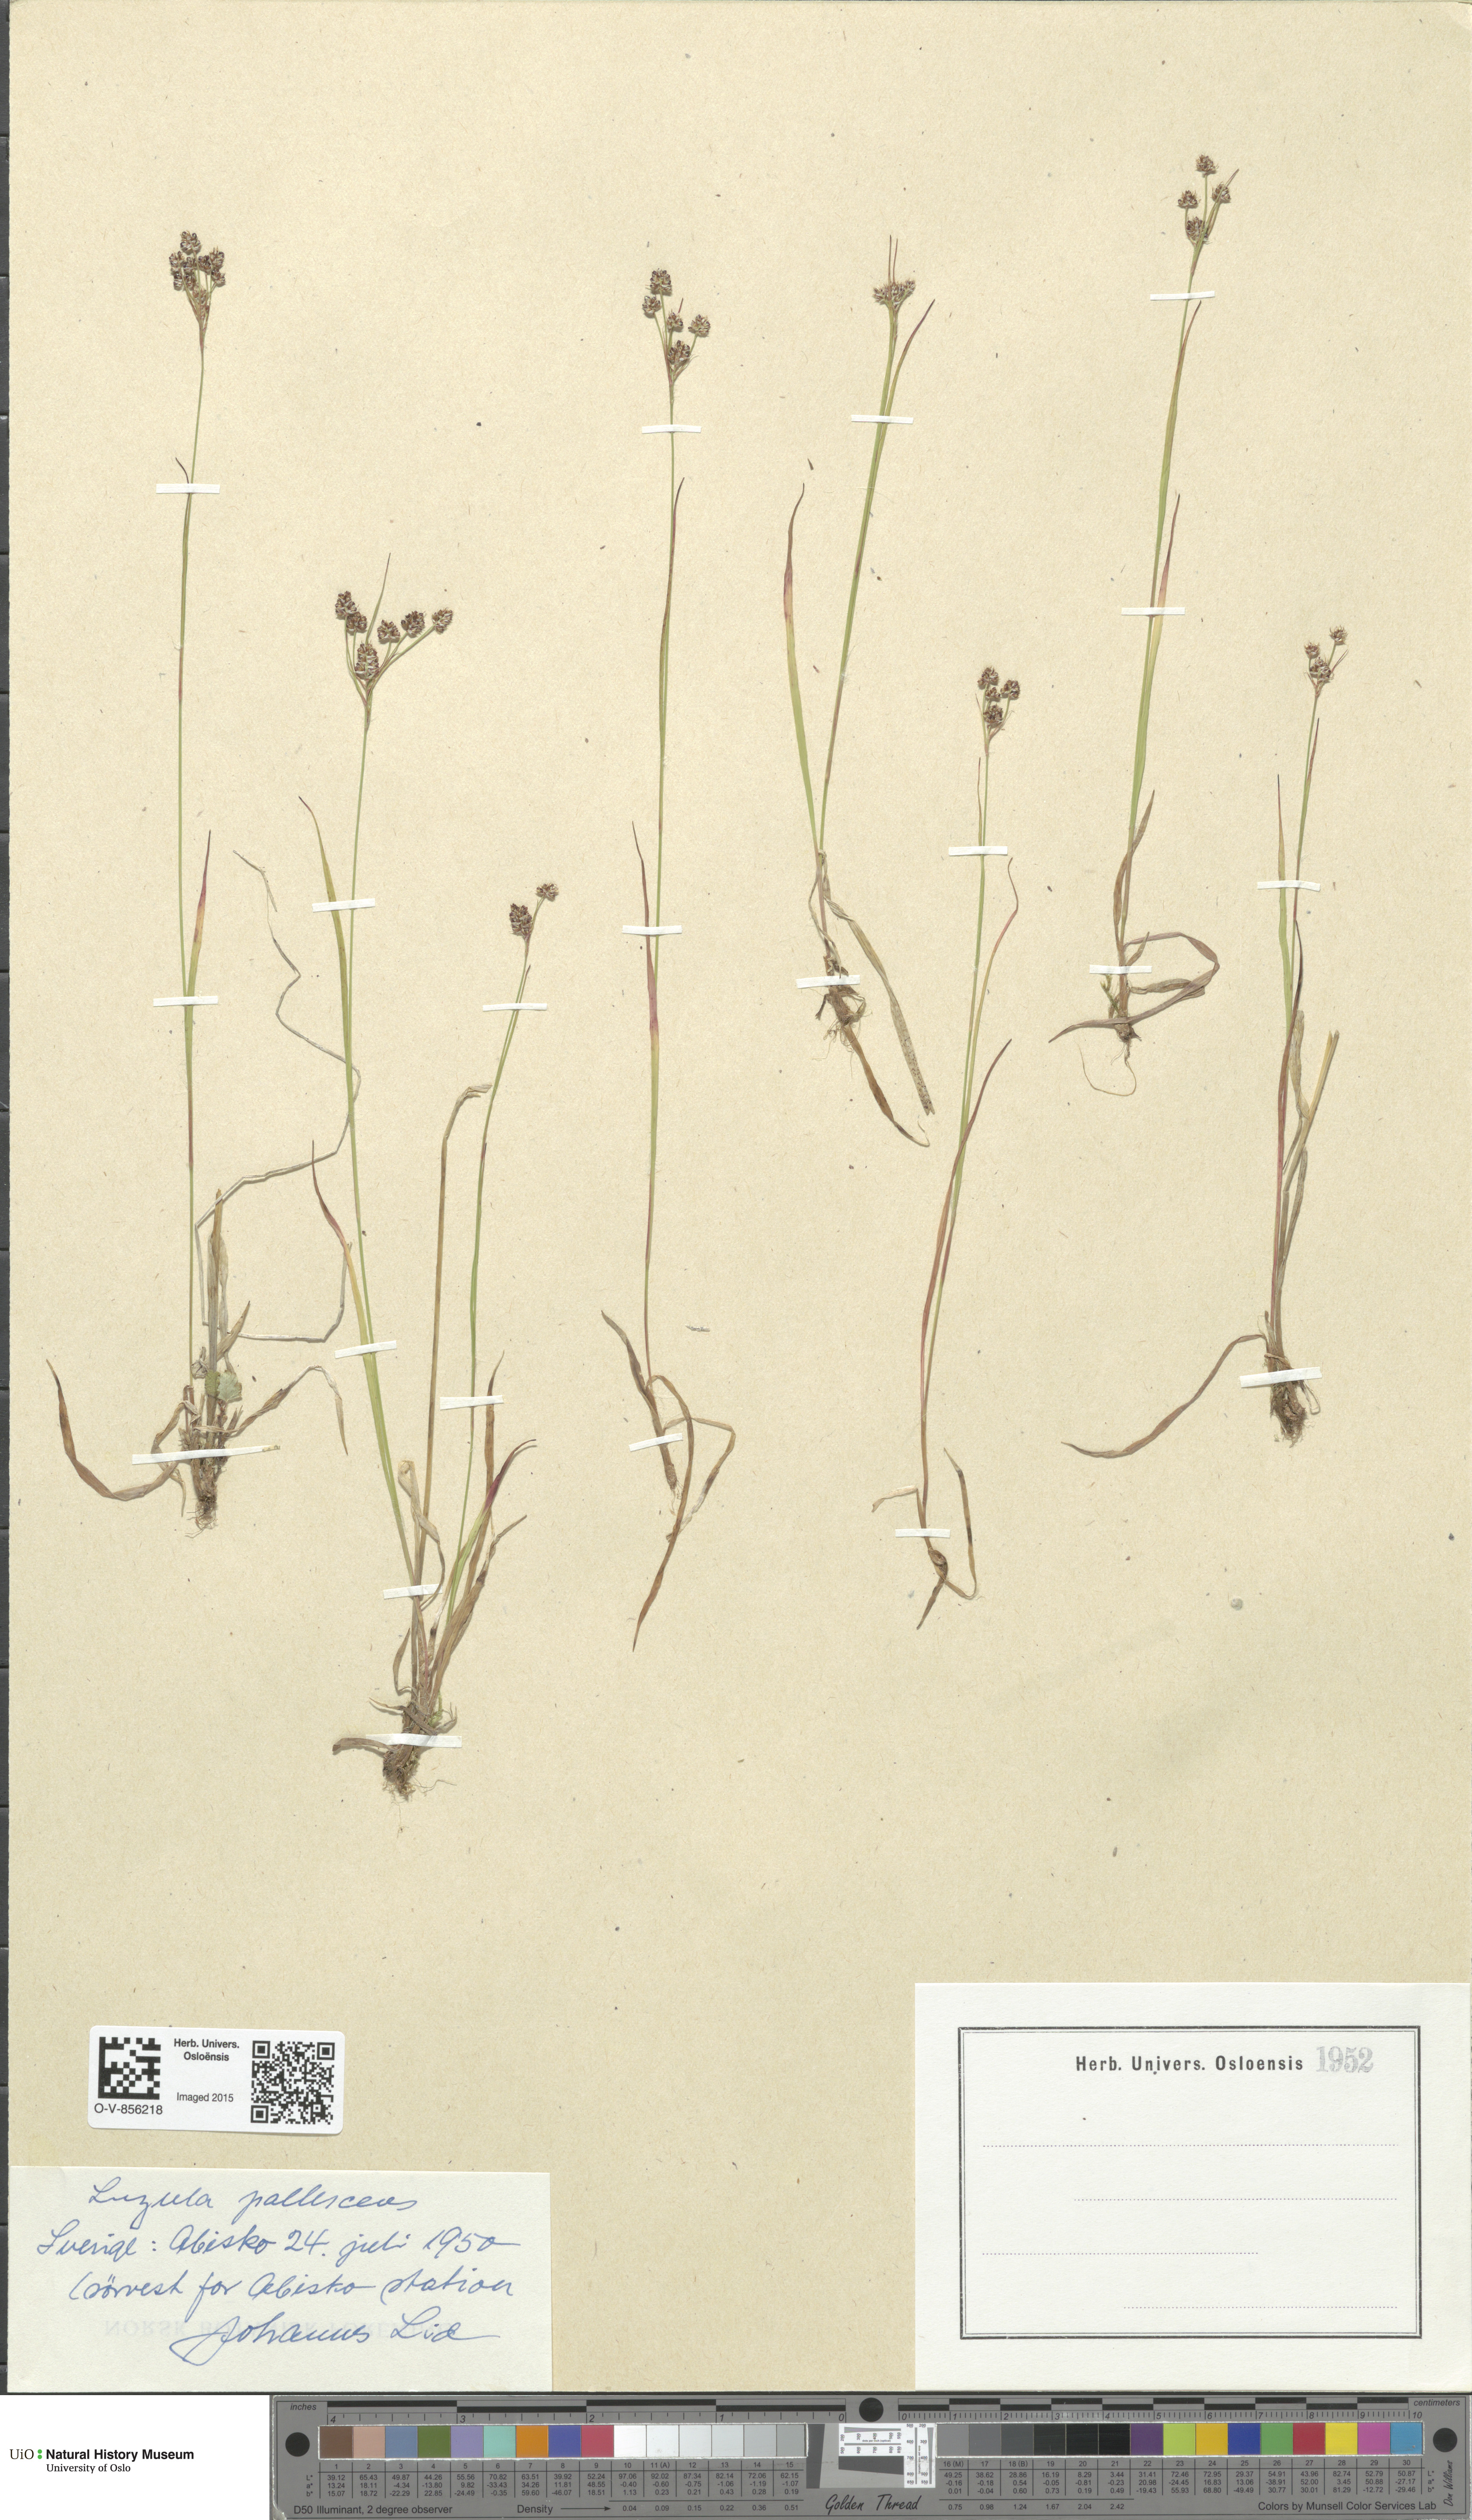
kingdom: Plantae
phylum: Tracheophyta
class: Liliopsida
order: Poales
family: Juncaceae
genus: Luzula
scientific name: Luzula pallescens
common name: Fen wood-rush
